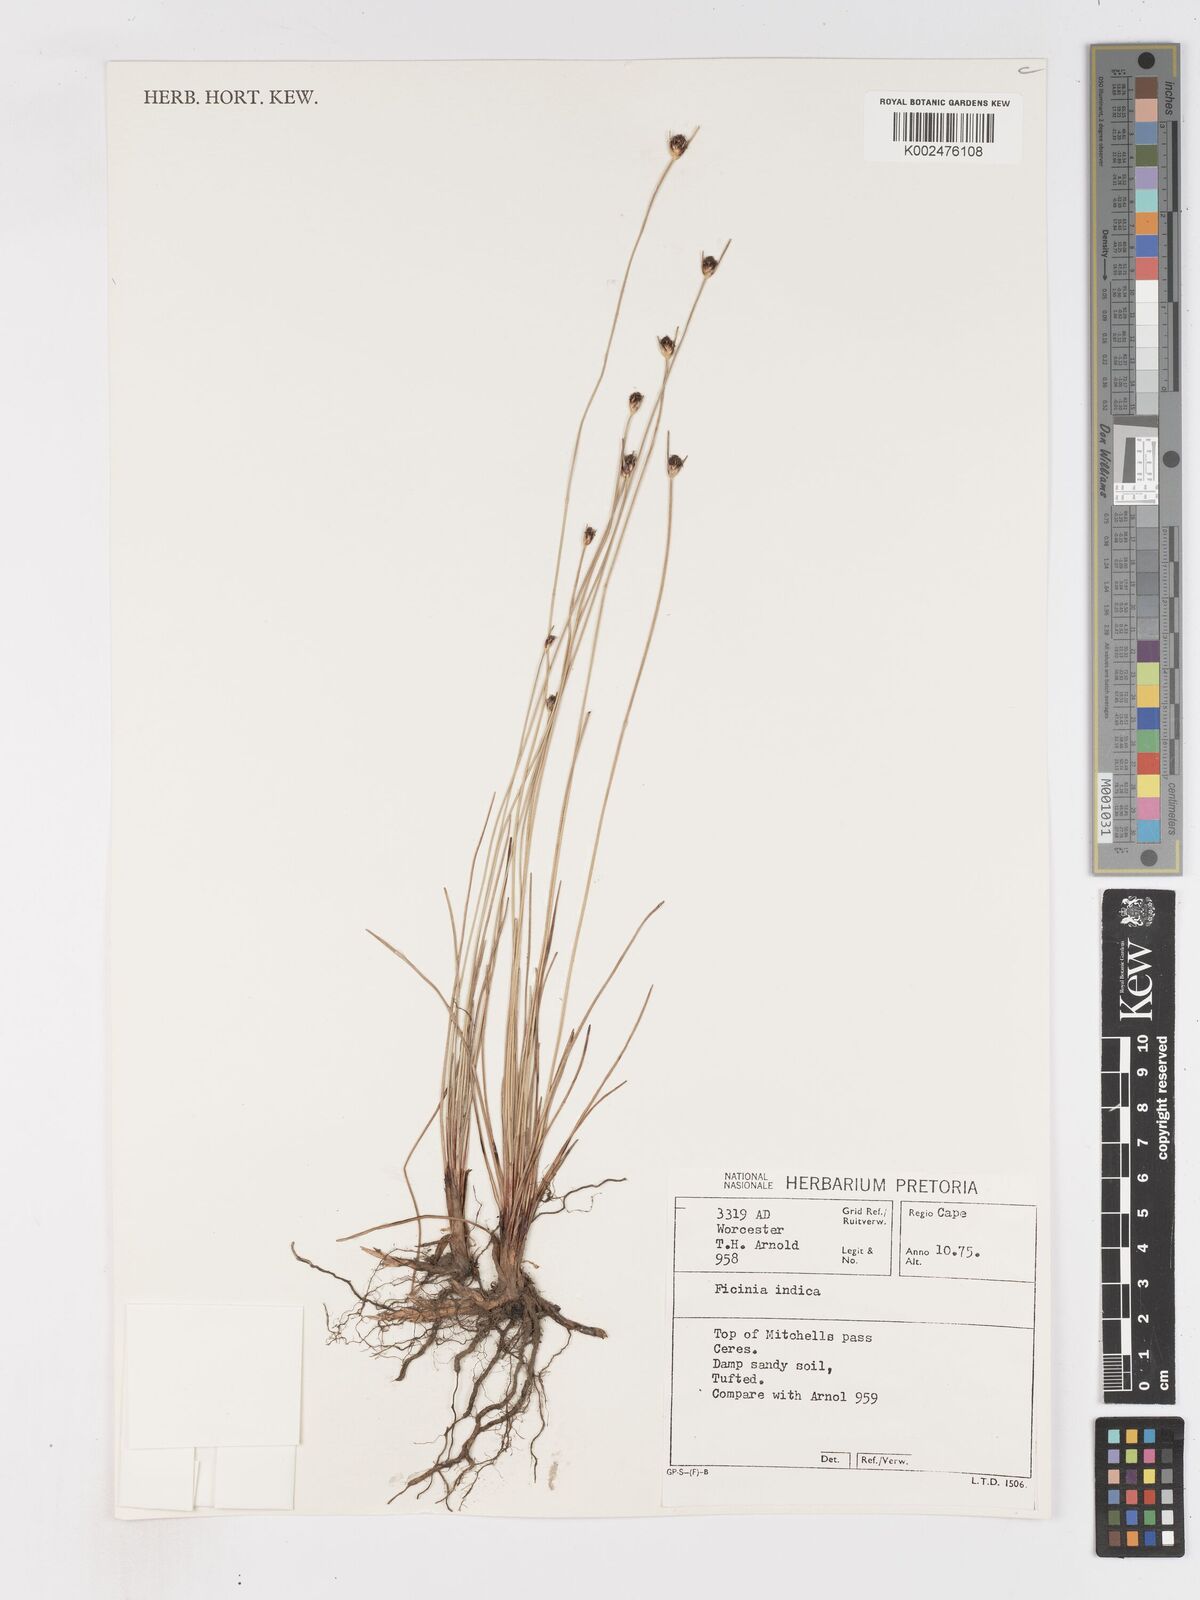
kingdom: Plantae
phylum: Tracheophyta
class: Liliopsida
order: Poales
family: Cyperaceae
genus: Ficinia
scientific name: Ficinia indica
